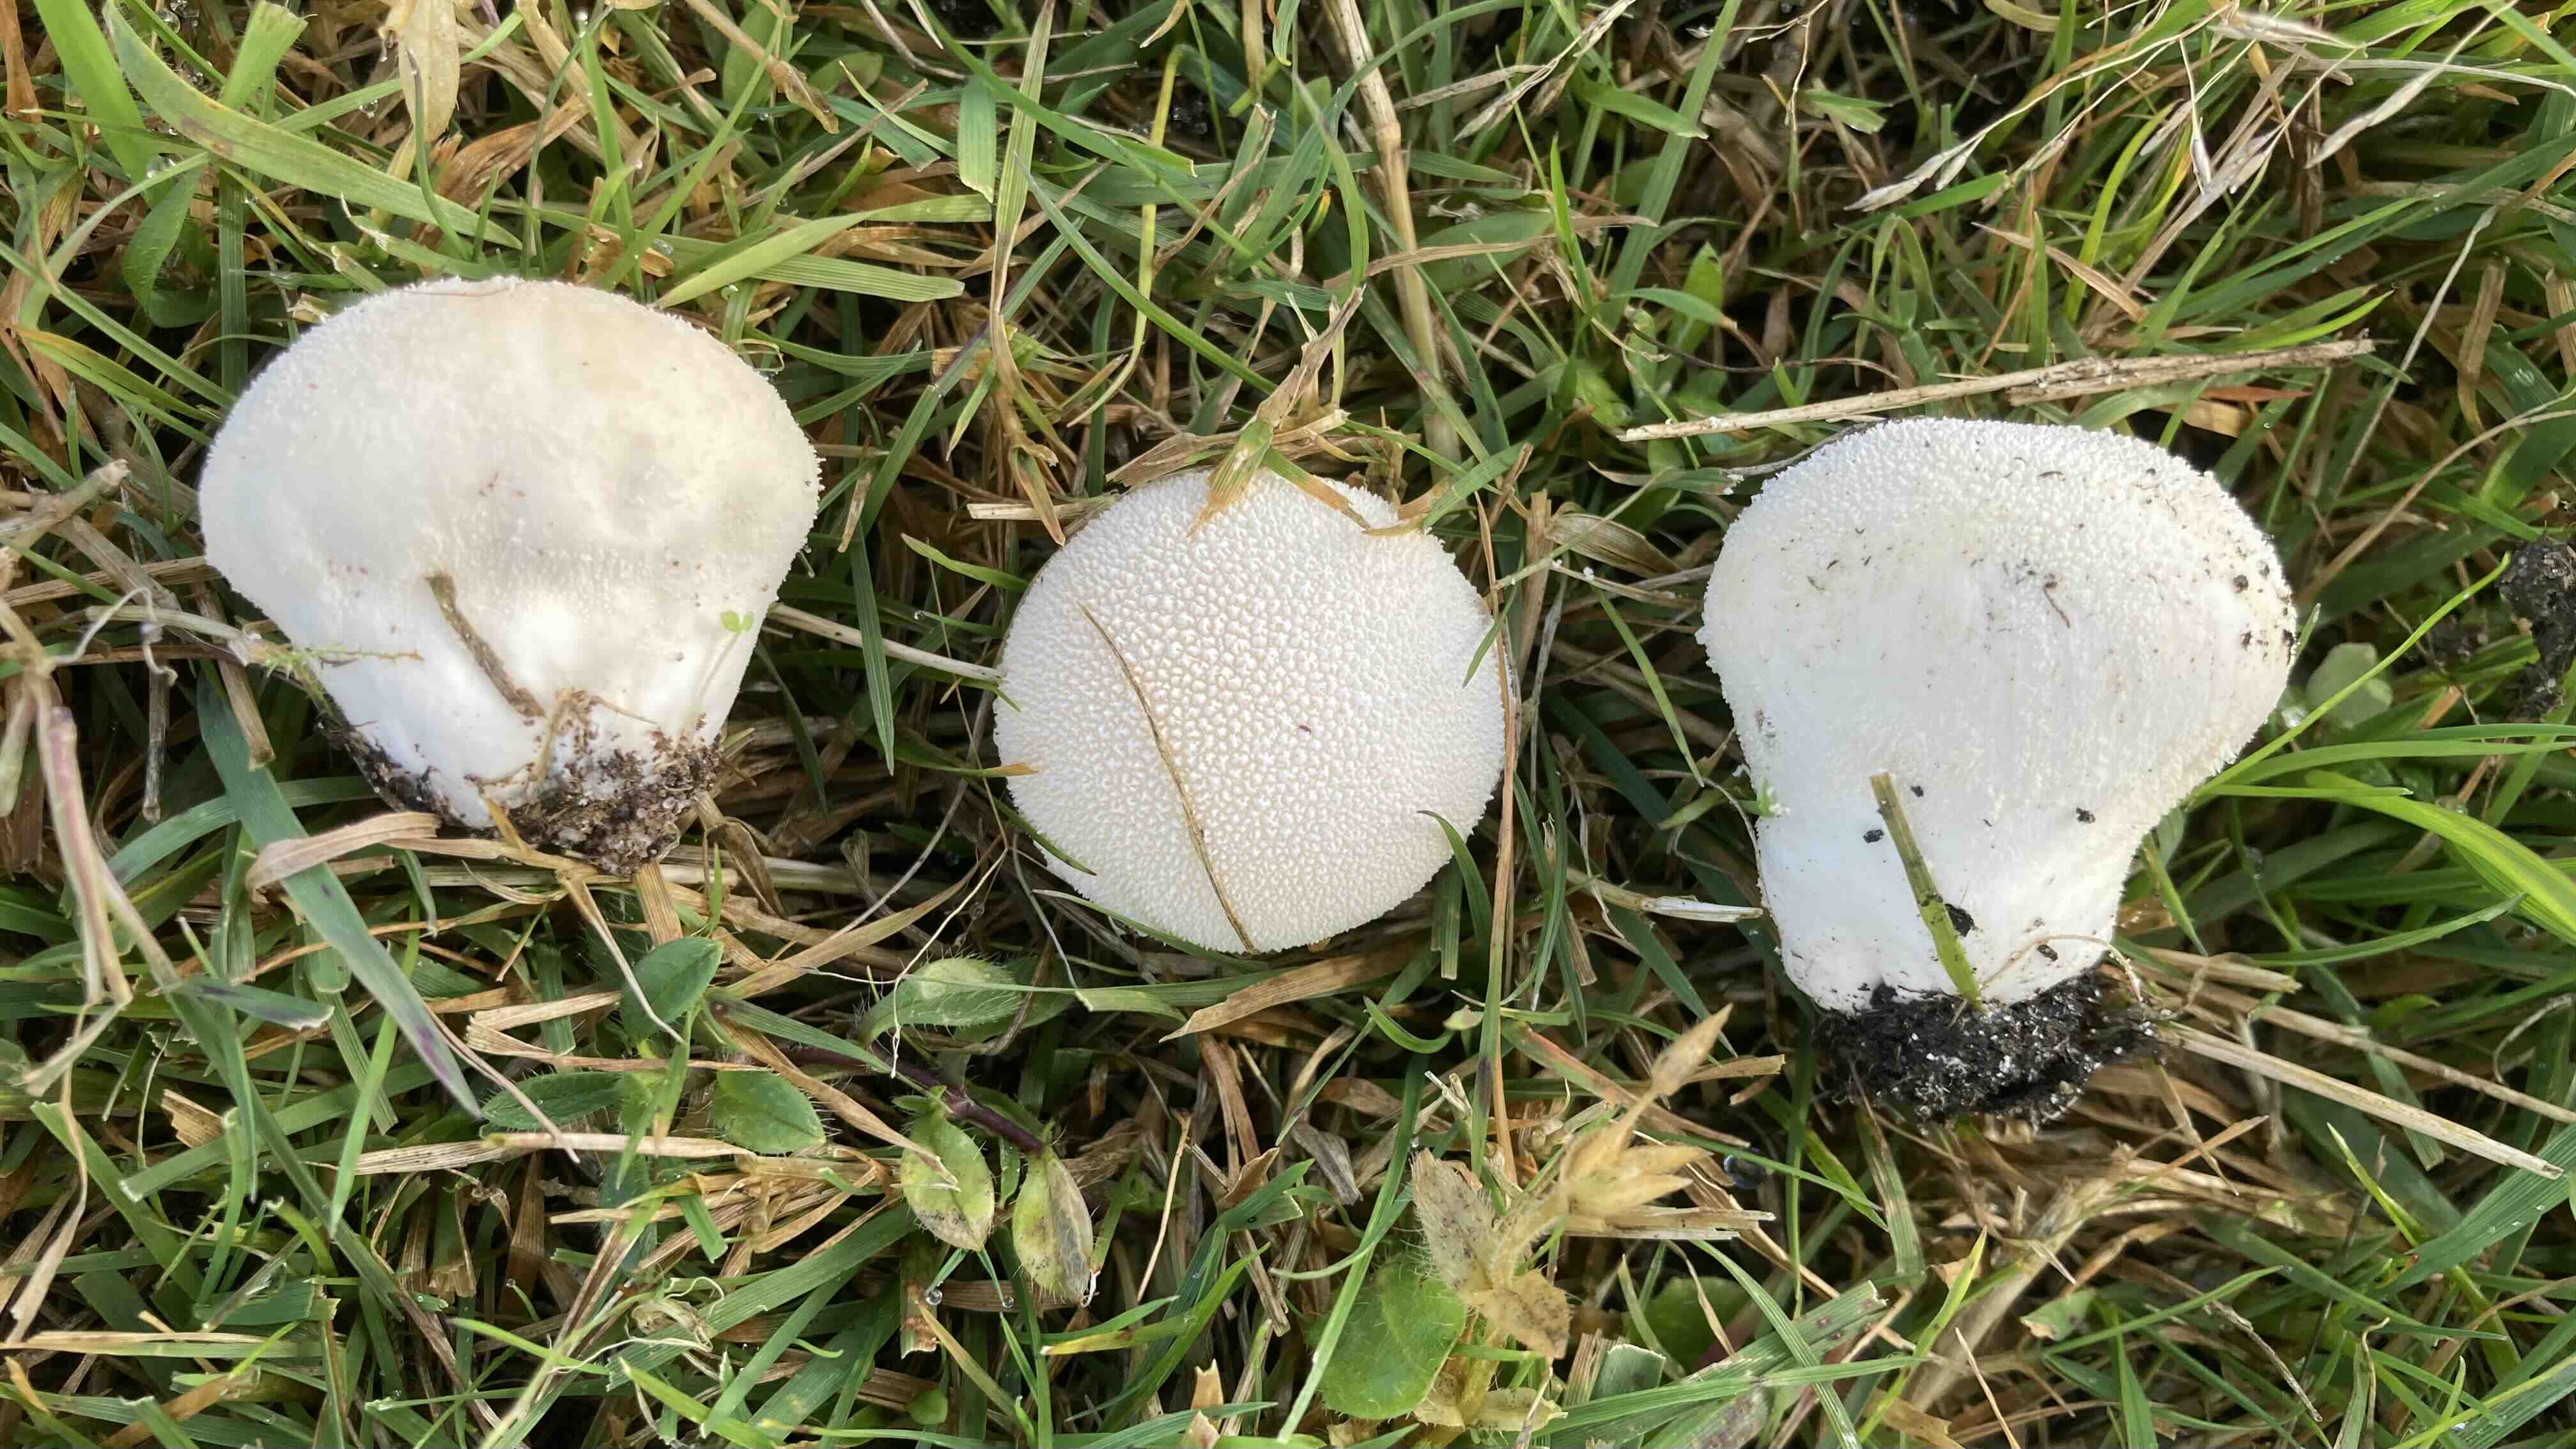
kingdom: Fungi
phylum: Basidiomycota
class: Agaricomycetes
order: Agaricales
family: Lycoperdaceae
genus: Lycoperdon
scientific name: Lycoperdon pratense
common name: flad støvbold
